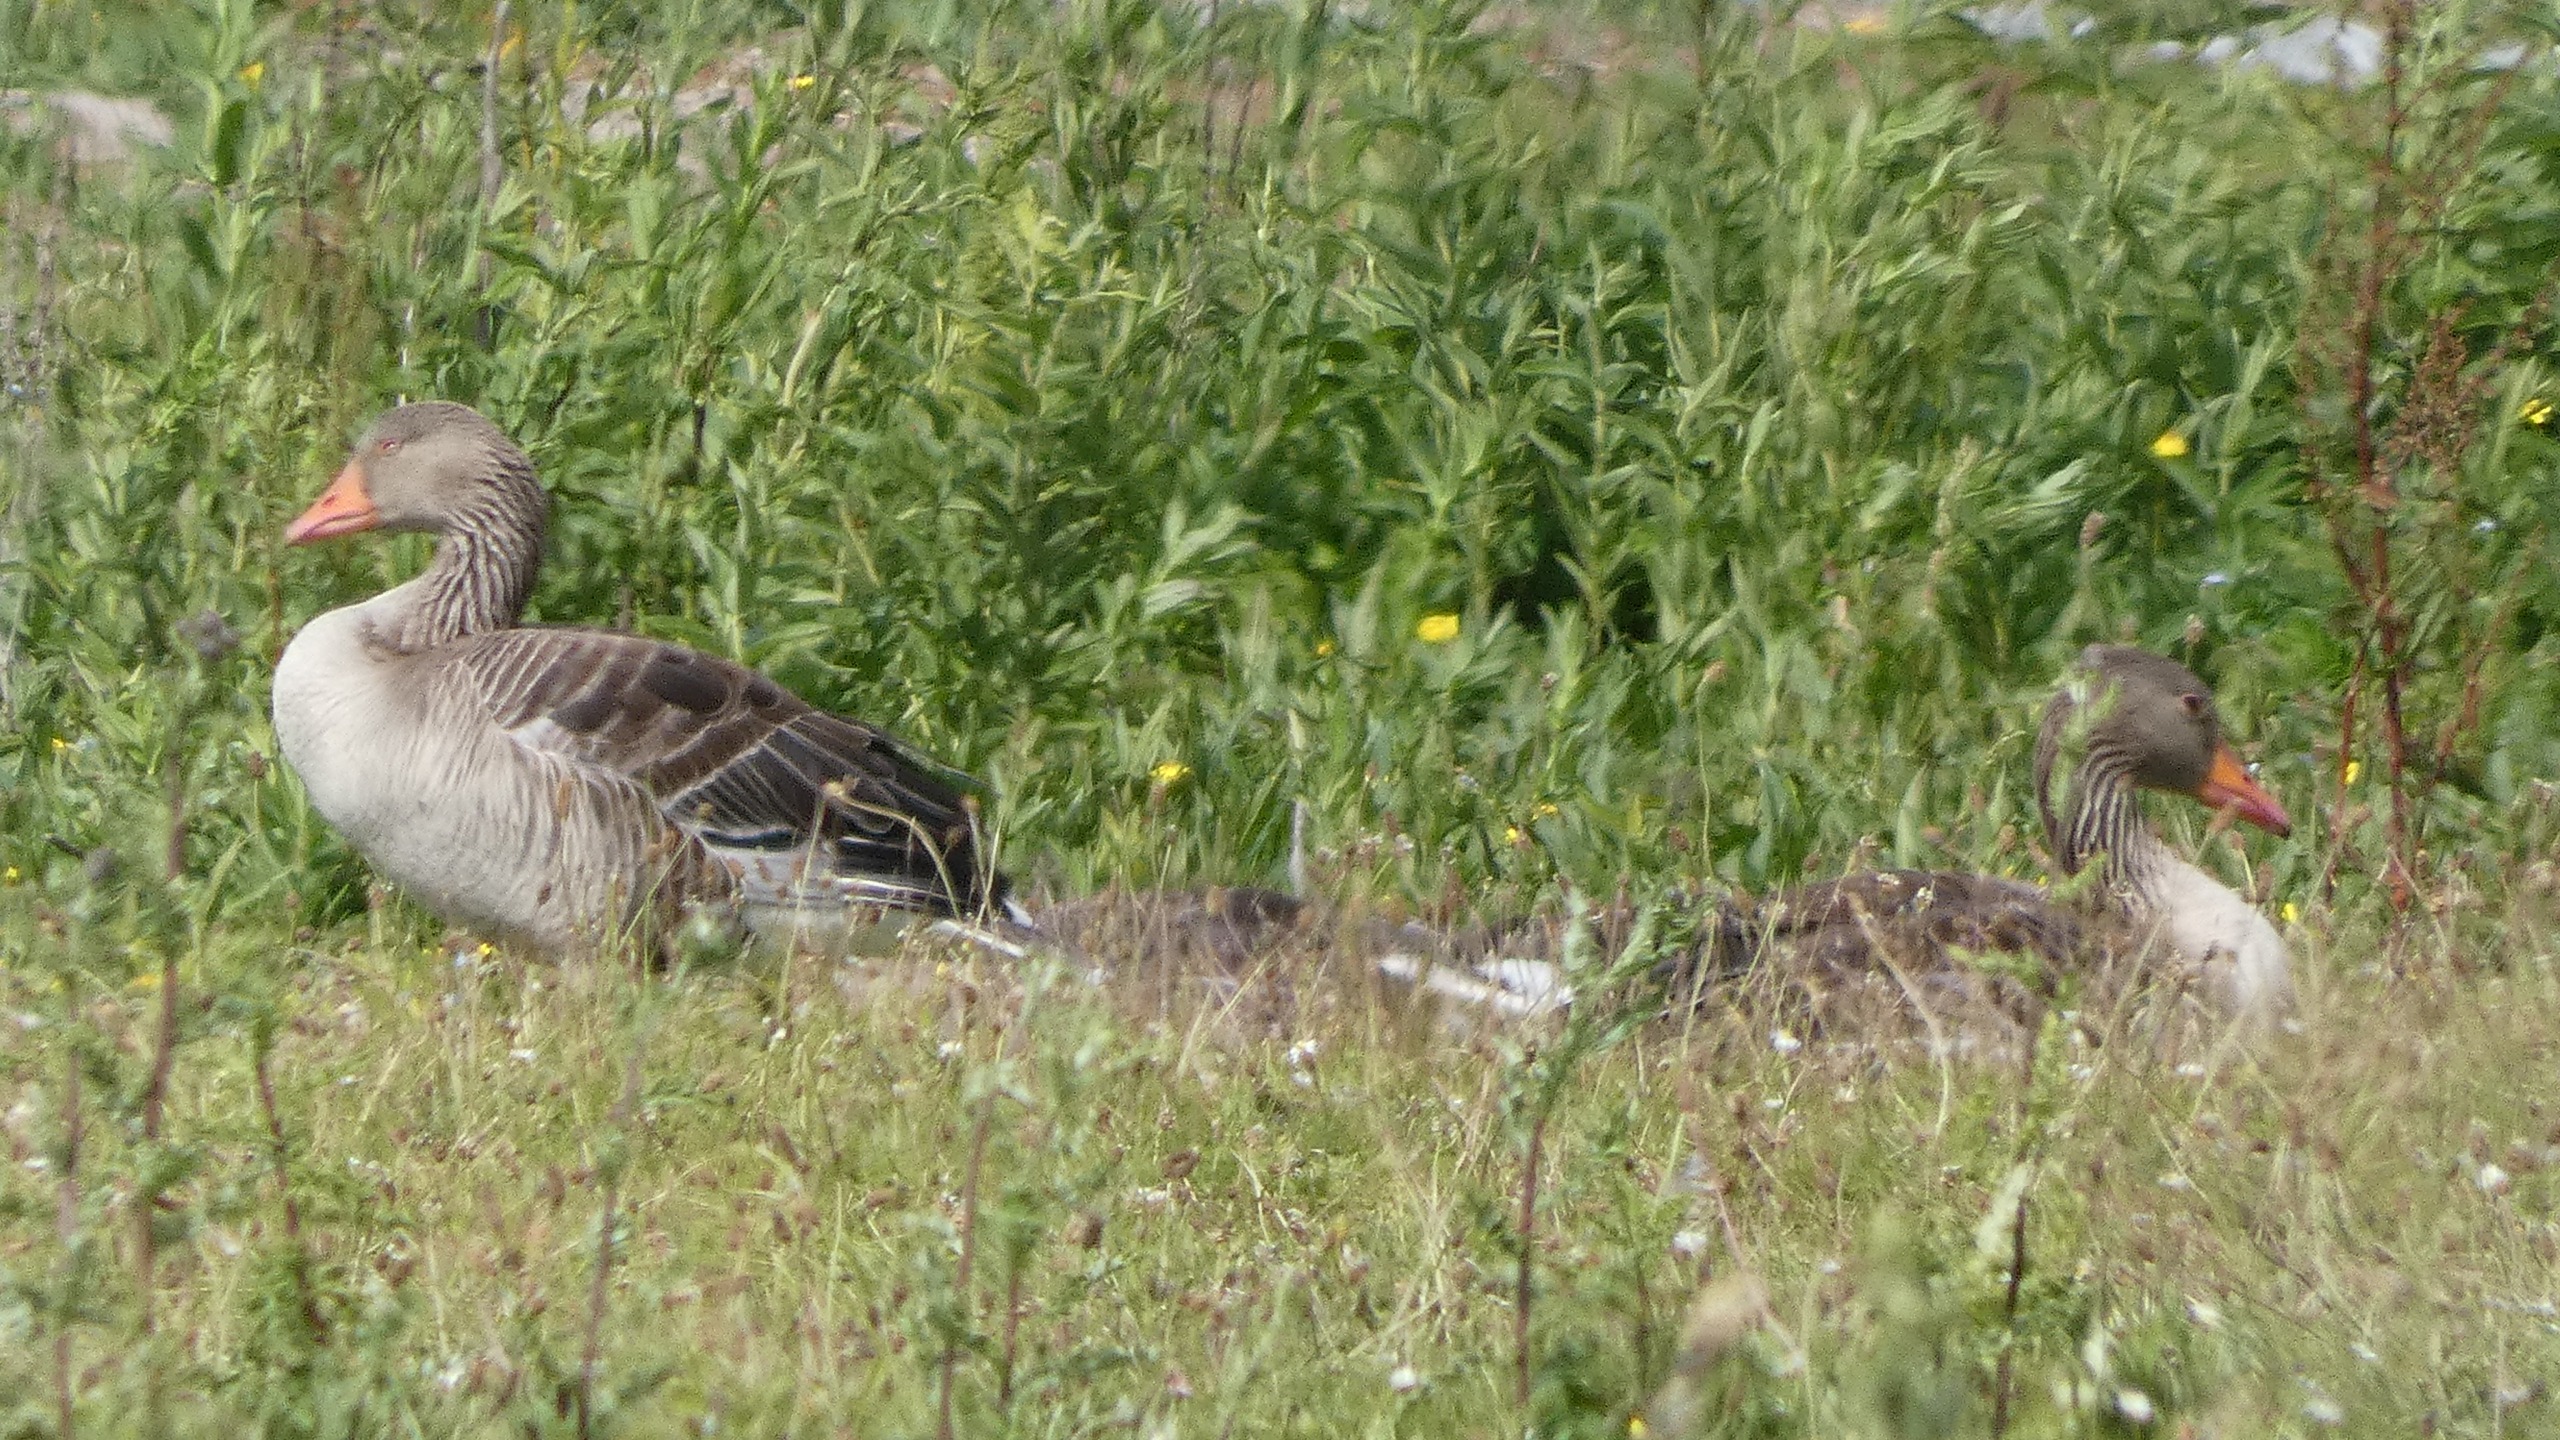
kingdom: Animalia
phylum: Chordata
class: Aves
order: Anseriformes
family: Anatidae
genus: Anser
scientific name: Anser anser
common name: Grågås
